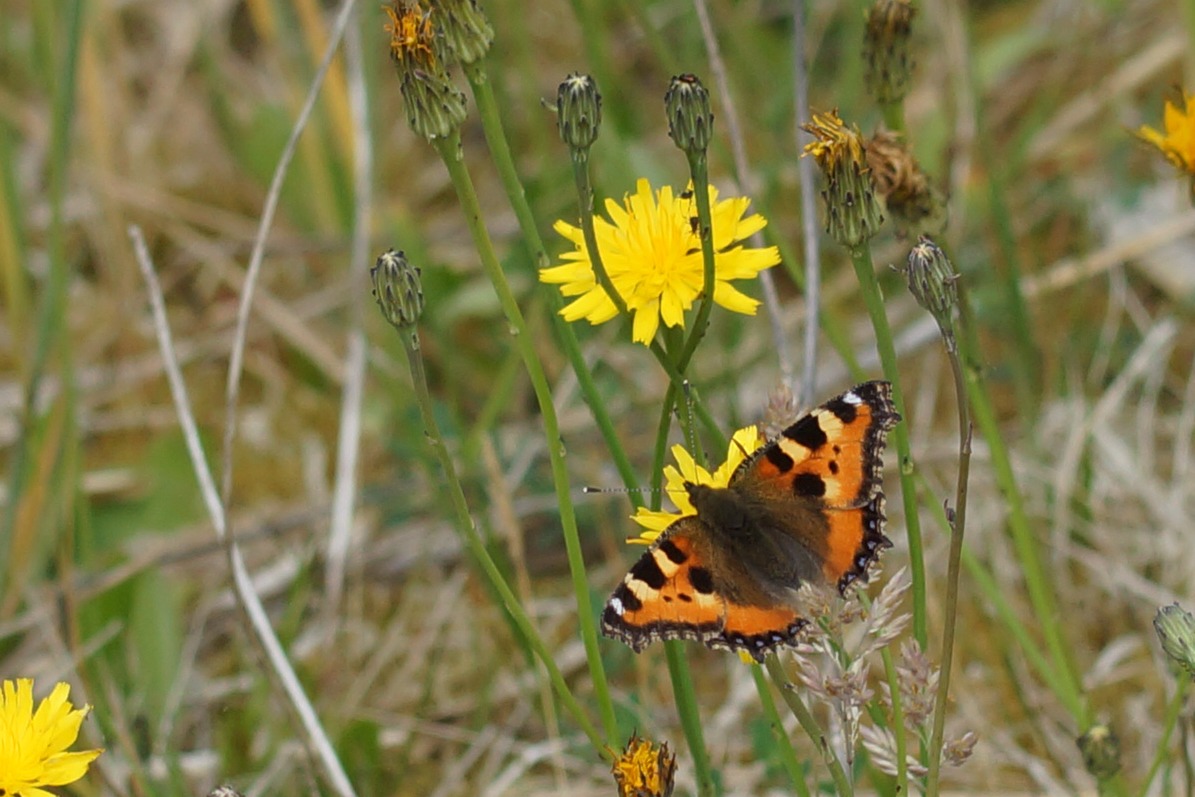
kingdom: Animalia
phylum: Arthropoda
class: Insecta
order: Lepidoptera
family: Nymphalidae
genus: Aglais
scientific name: Aglais urticae
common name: Nældens takvinge
